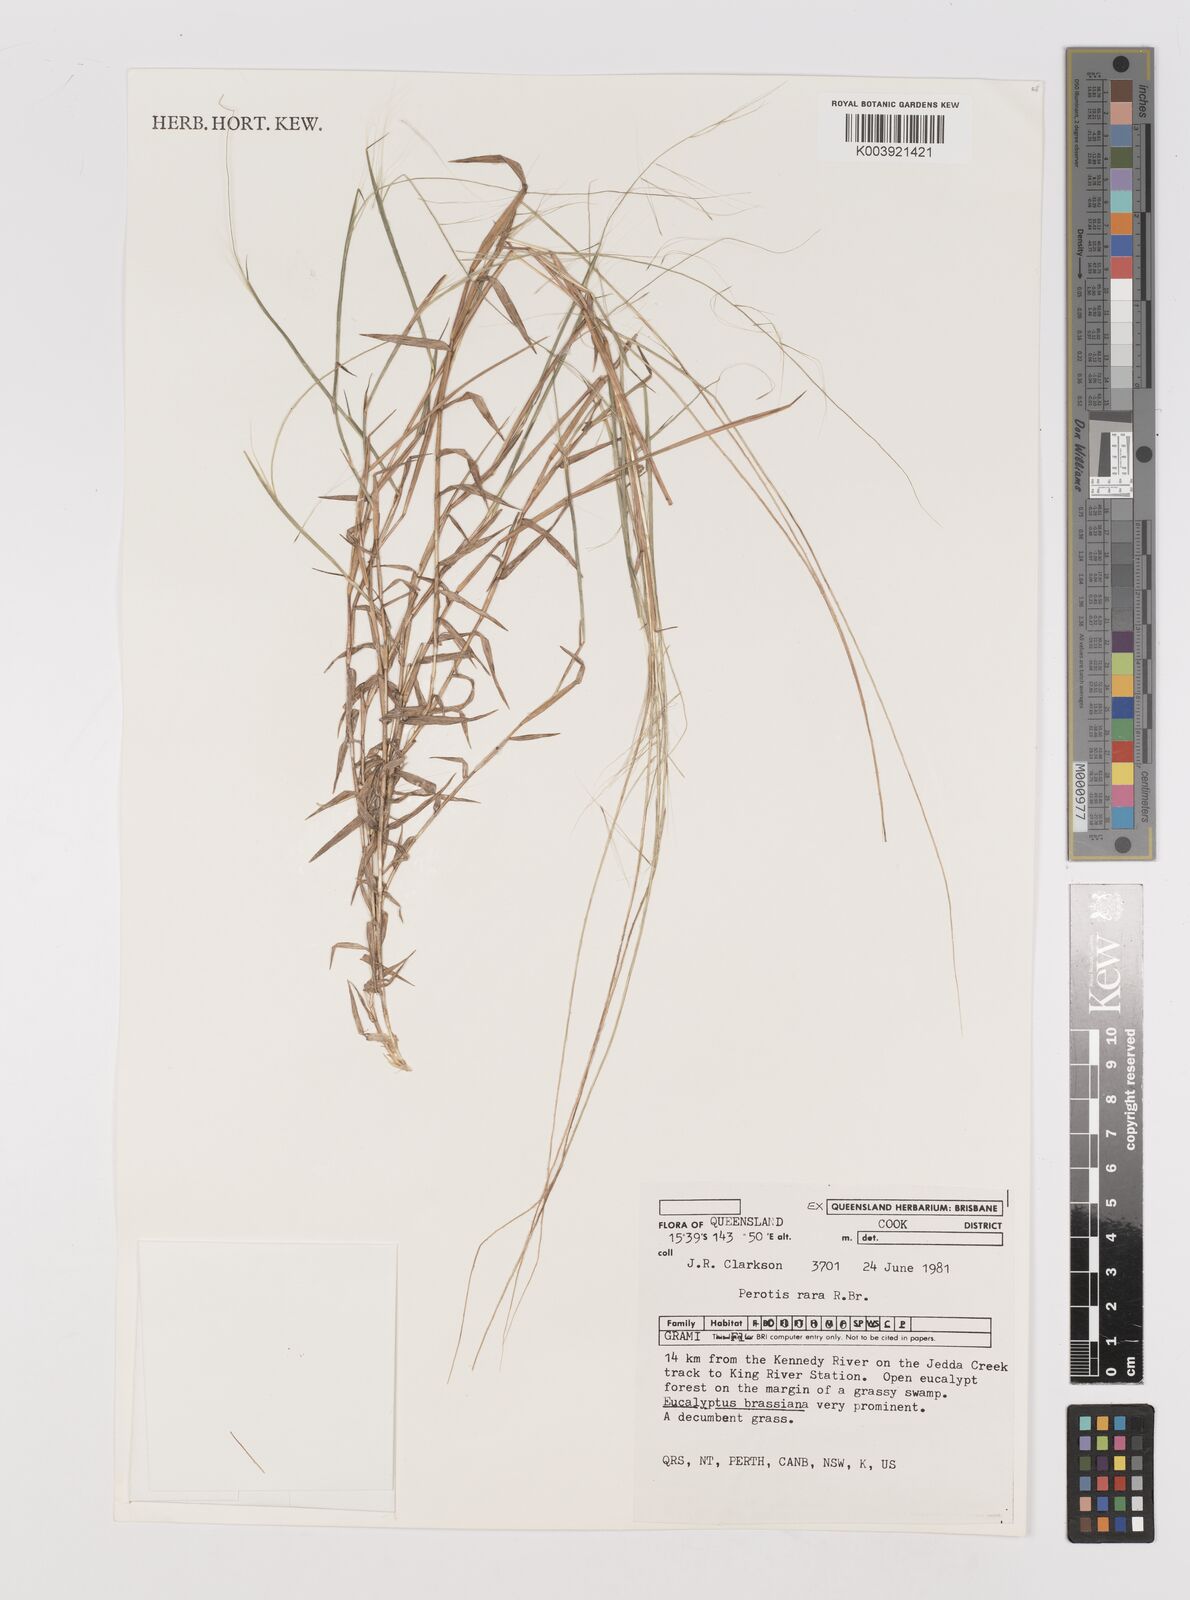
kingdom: Plantae
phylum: Tracheophyta
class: Liliopsida
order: Poales
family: Poaceae
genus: Perotis
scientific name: Perotis rara
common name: Comet grass
